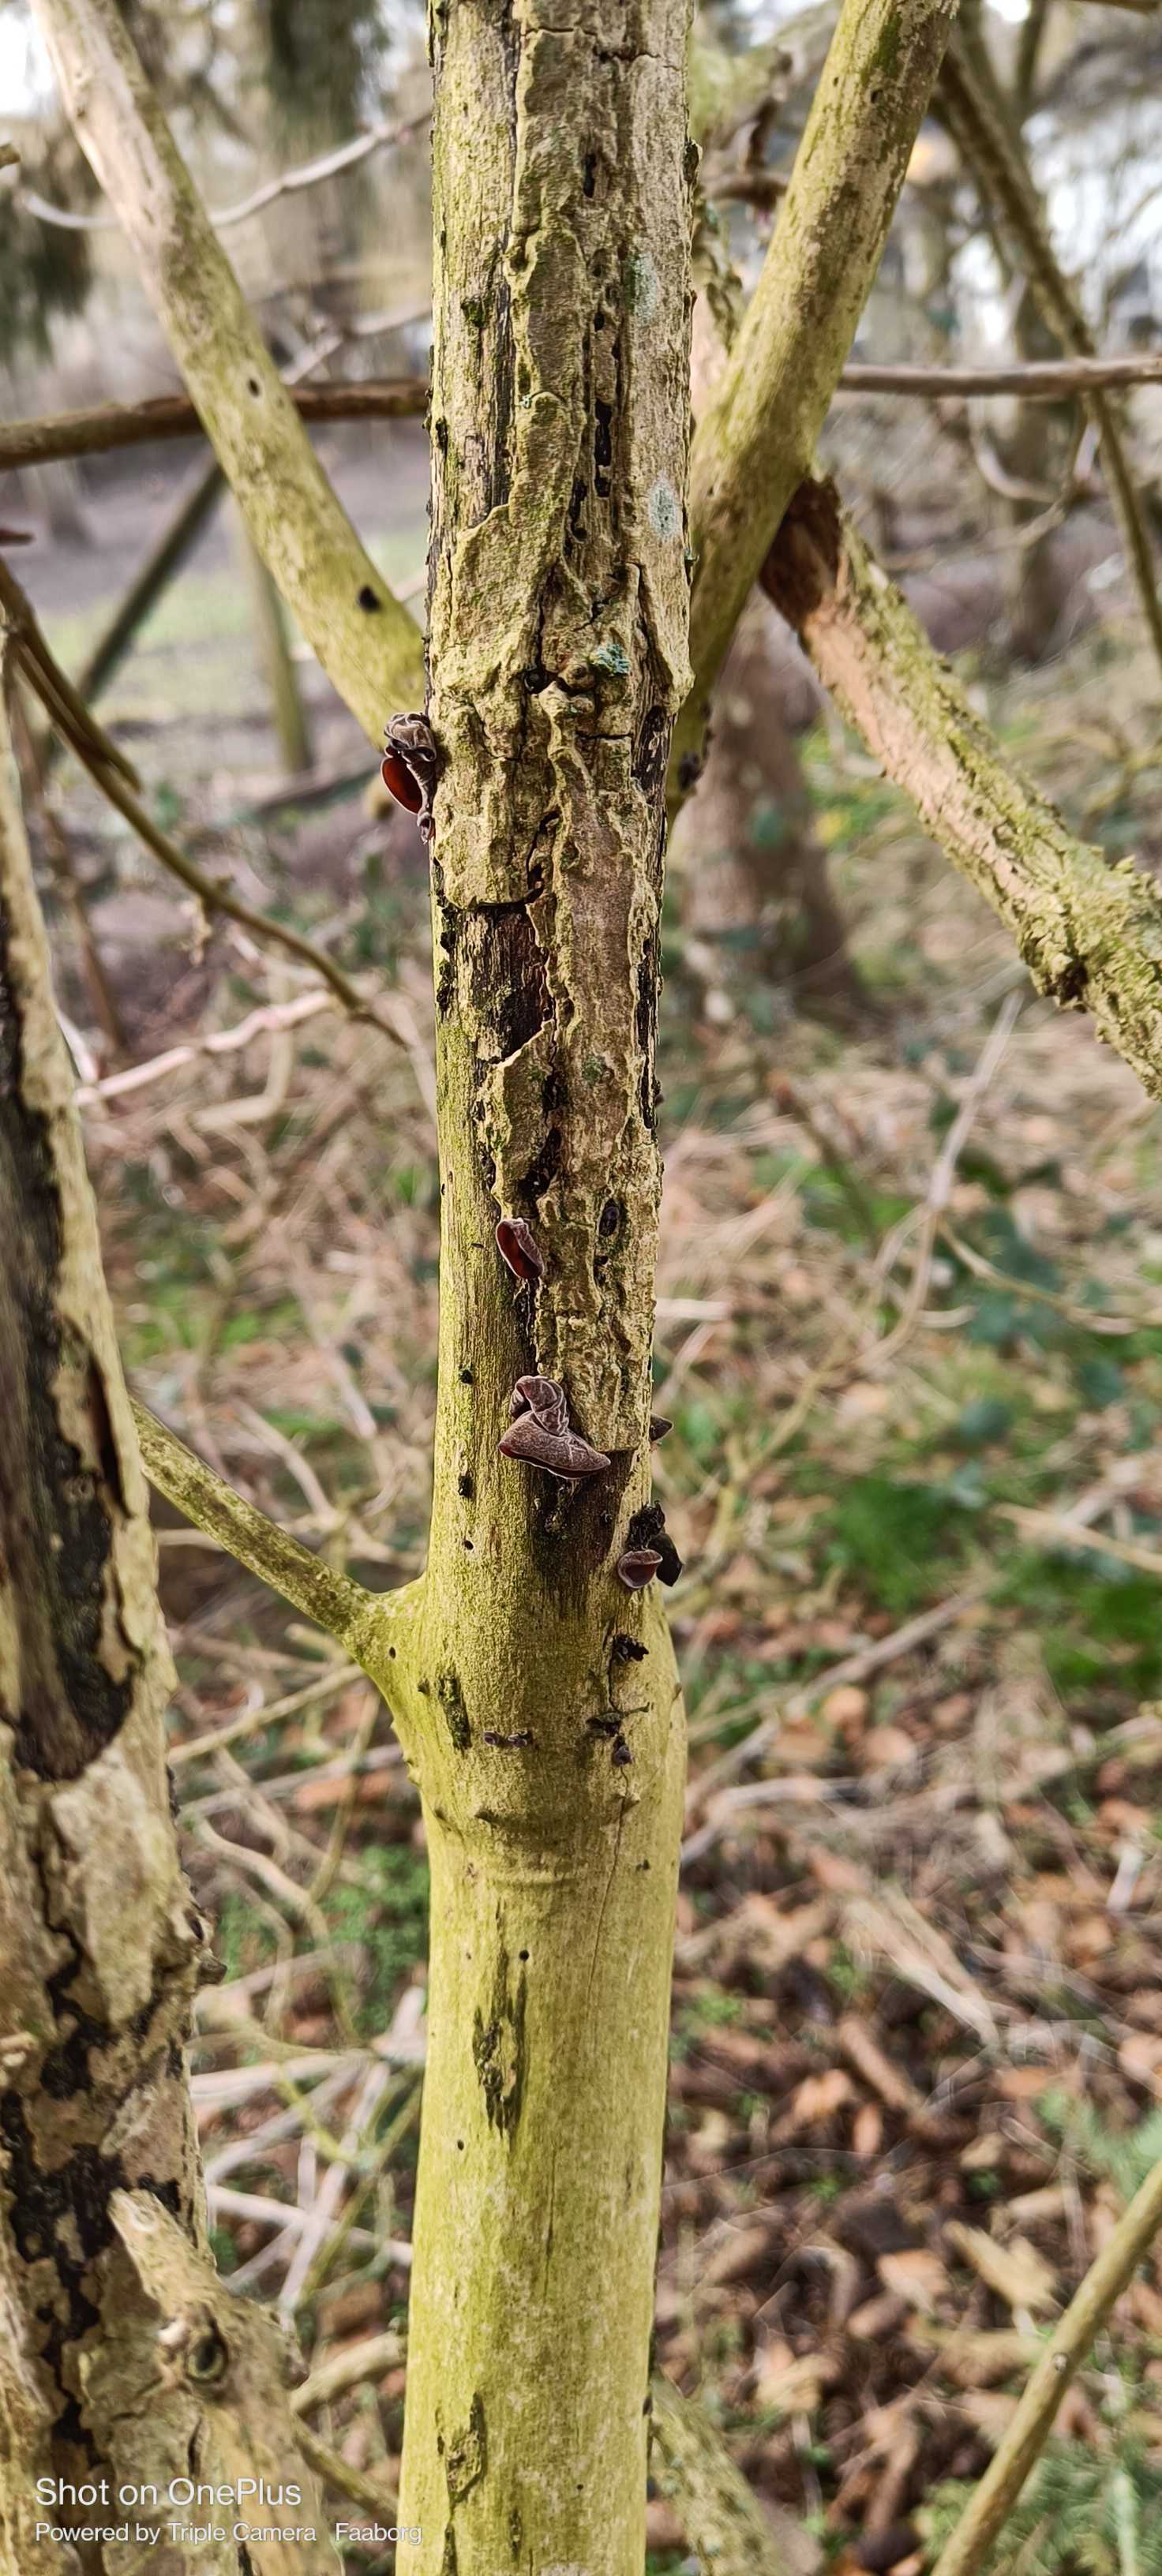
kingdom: Fungi
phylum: Basidiomycota
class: Agaricomycetes
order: Auriculariales
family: Auriculariaceae
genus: Auricularia
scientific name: Auricularia auricula-judae
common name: almindelig judasøre
